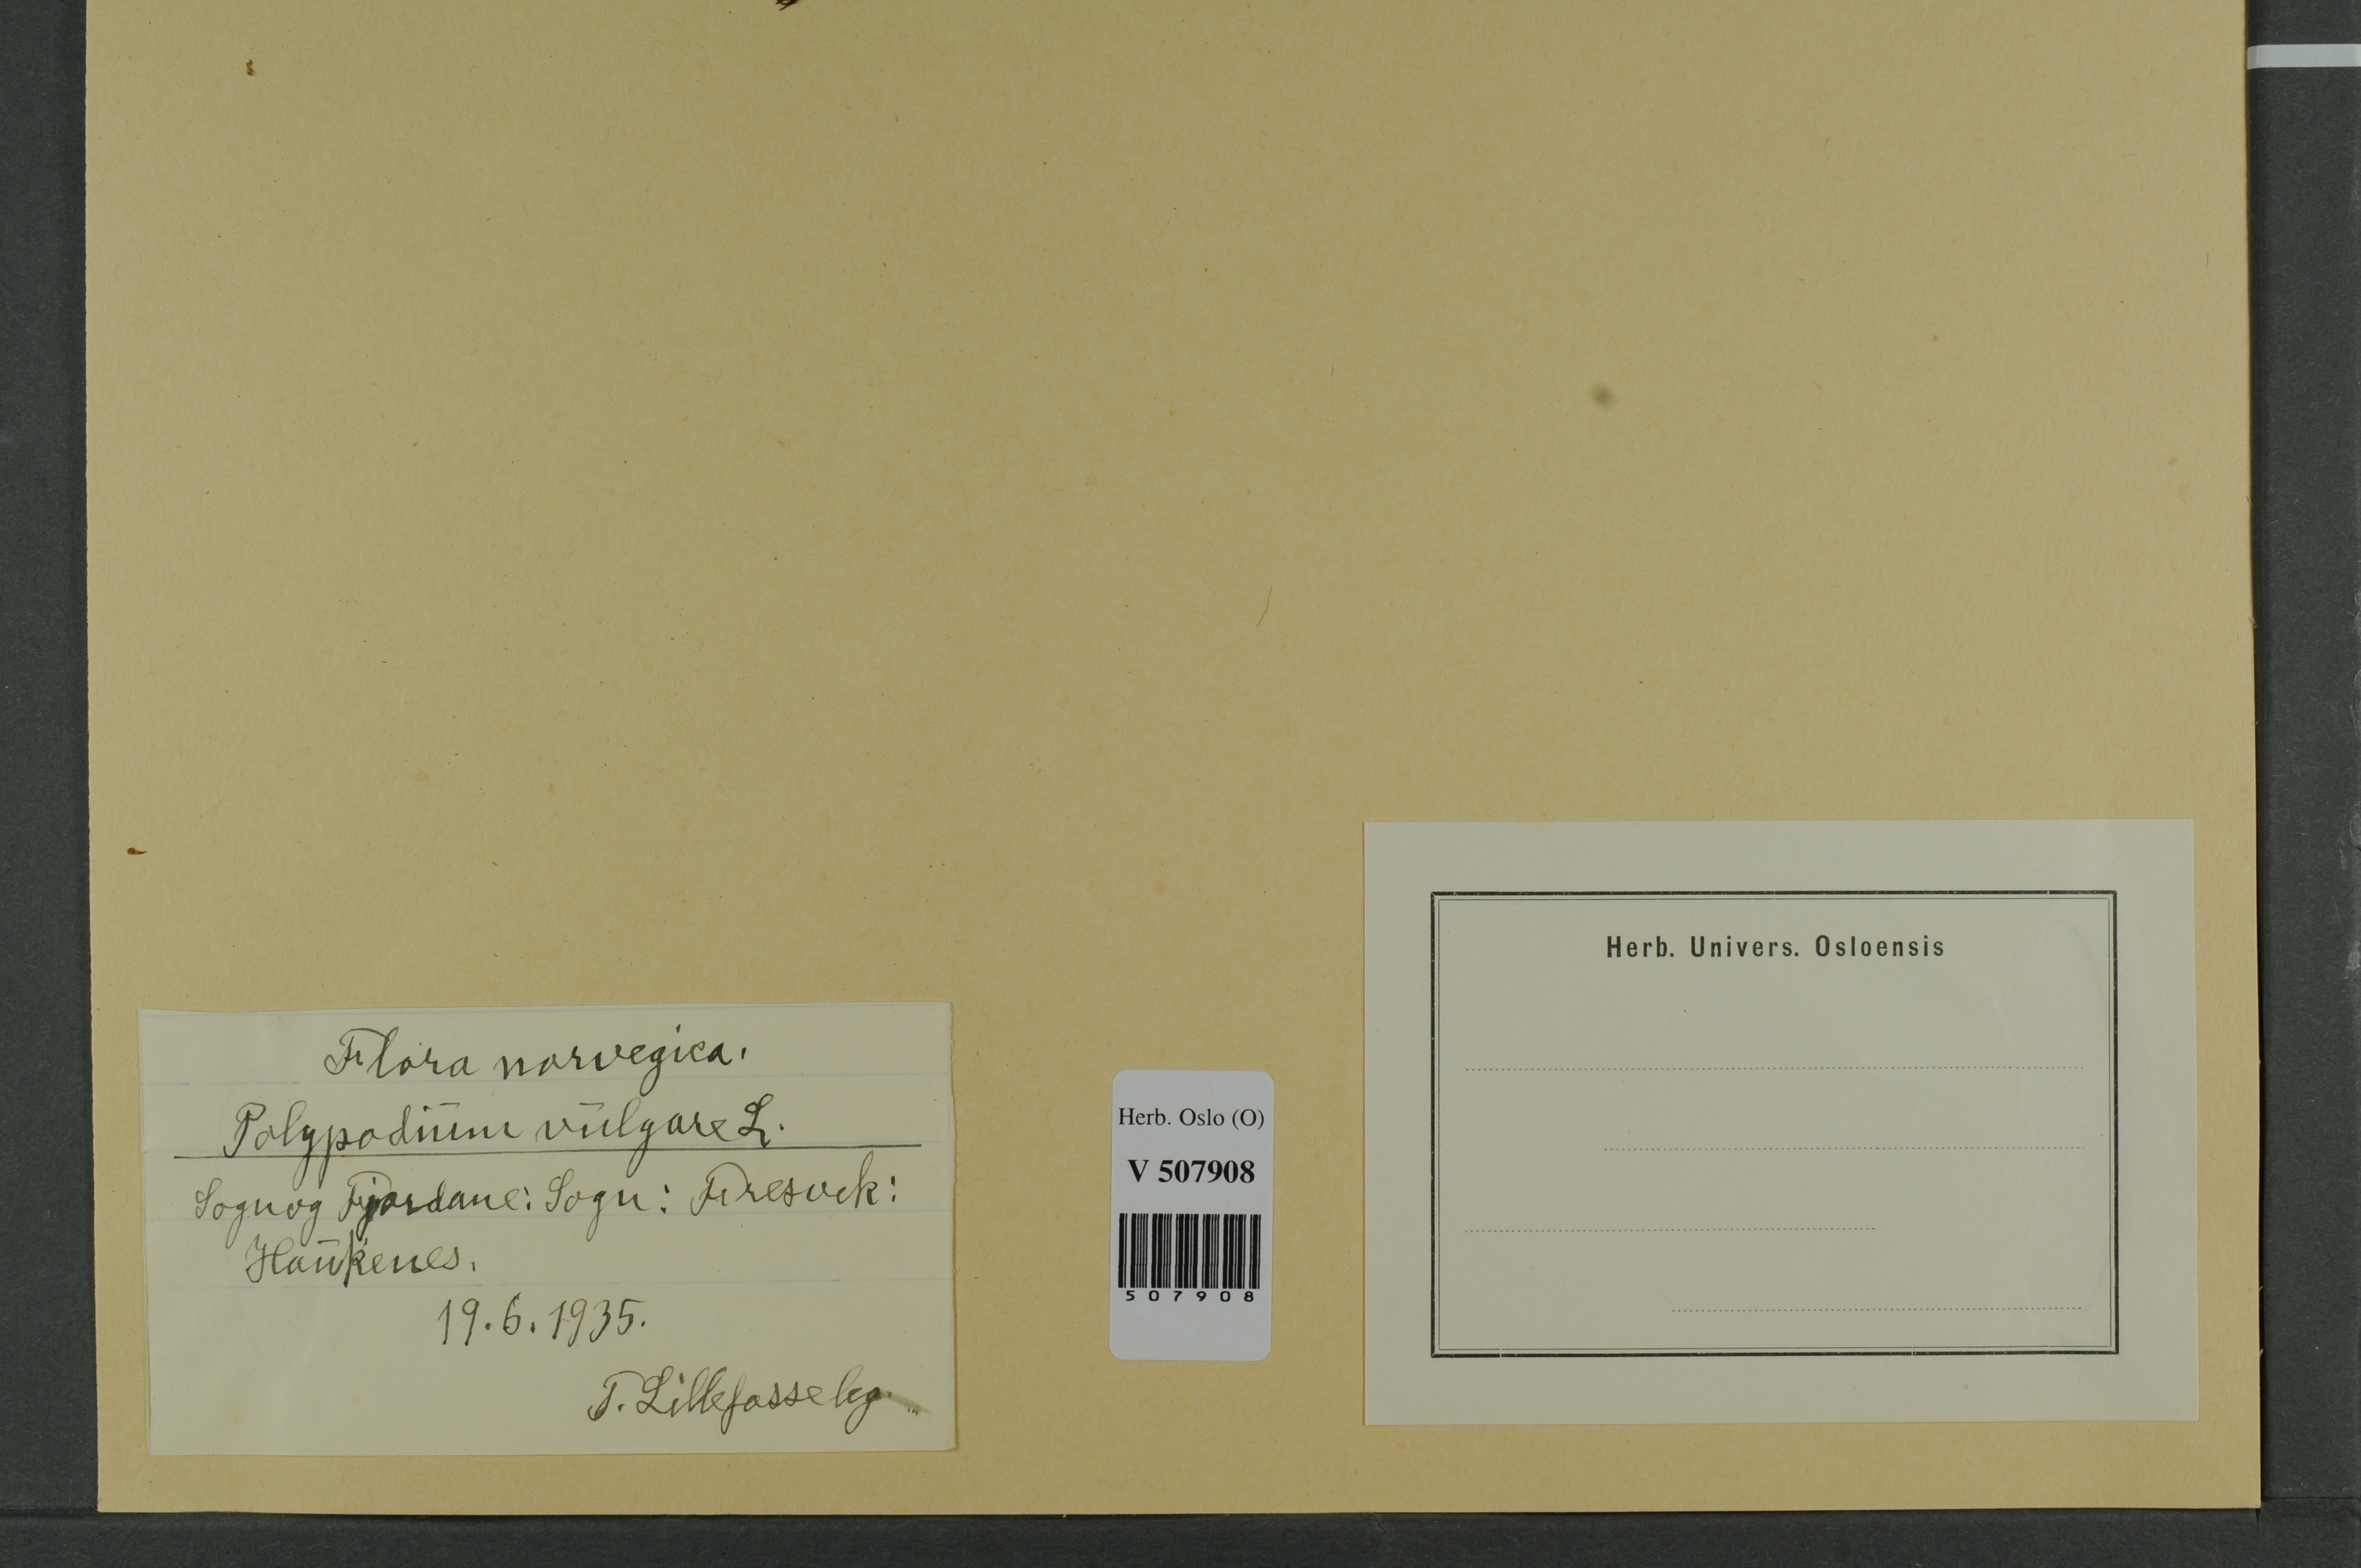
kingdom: Plantae
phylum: Tracheophyta
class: Polypodiopsida
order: Polypodiales
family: Polypodiaceae
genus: Polypodium
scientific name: Polypodium vulgare
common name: Common polypody
